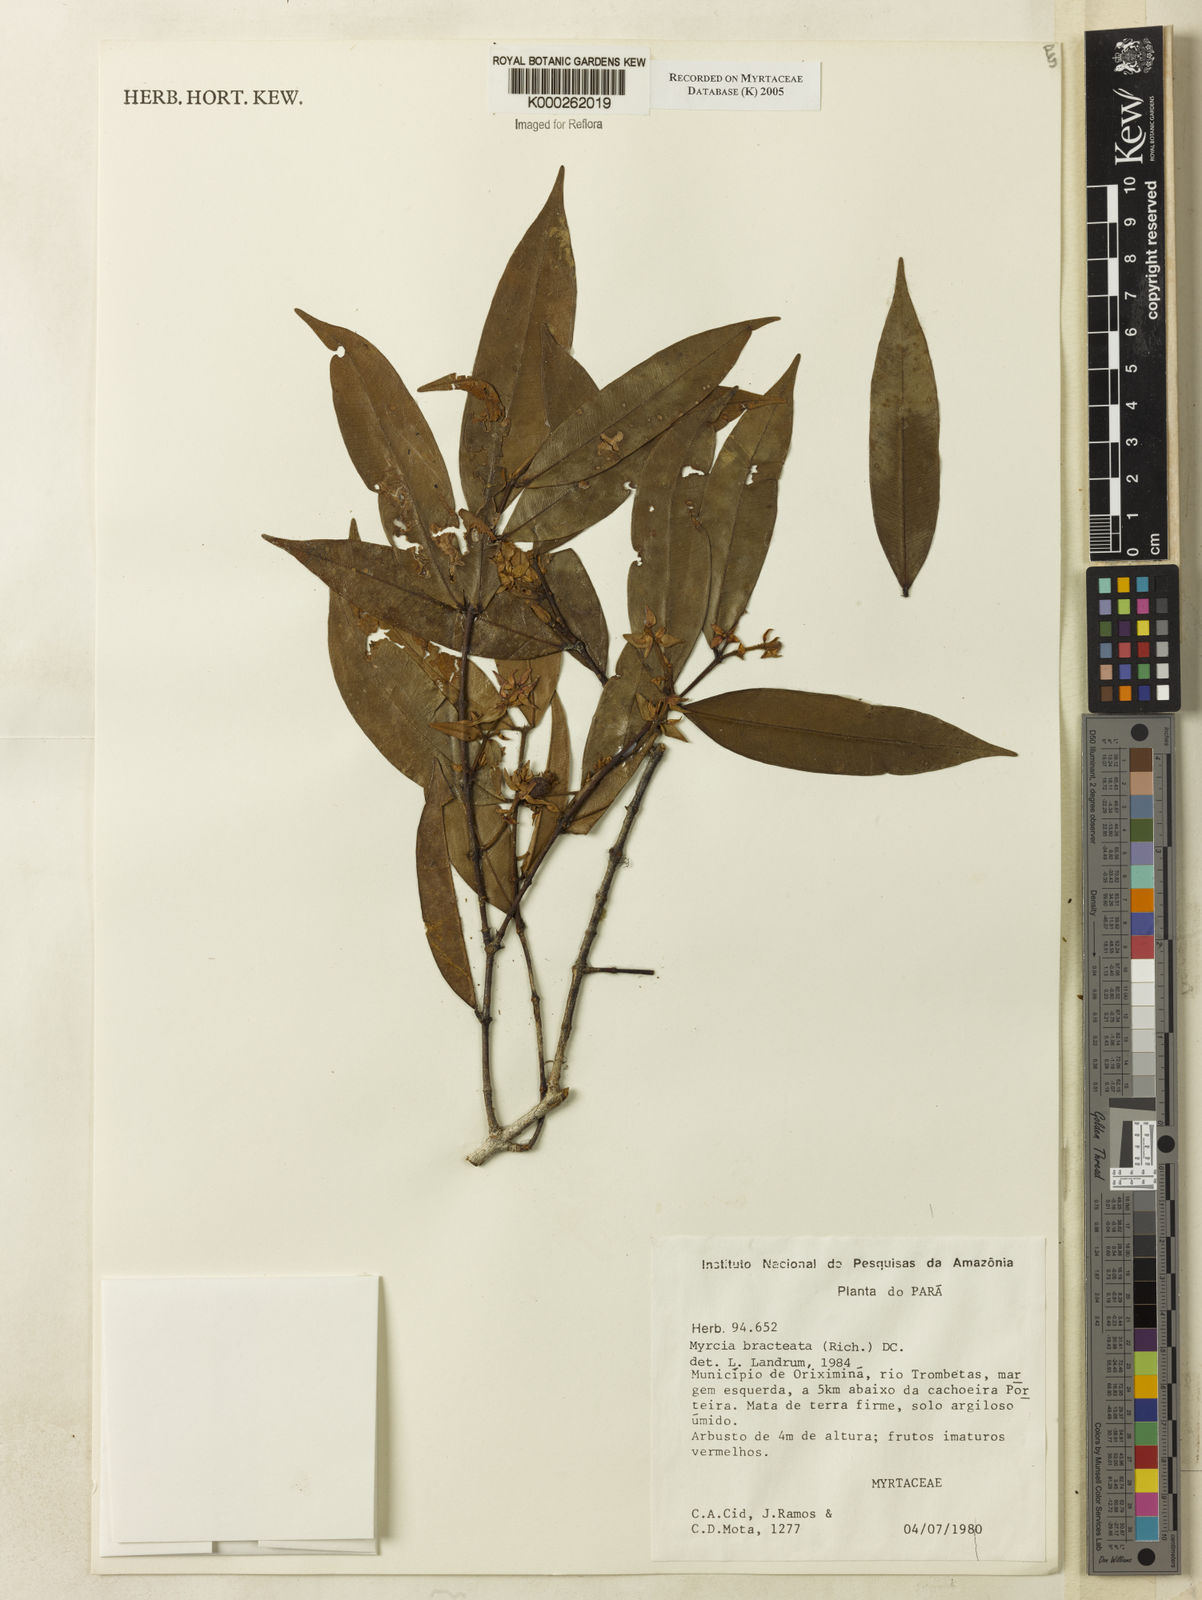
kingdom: Plantae
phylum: Tracheophyta
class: Magnoliopsida
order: Myrtales
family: Myrtaceae
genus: Myrcia
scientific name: Myrcia bracteata
